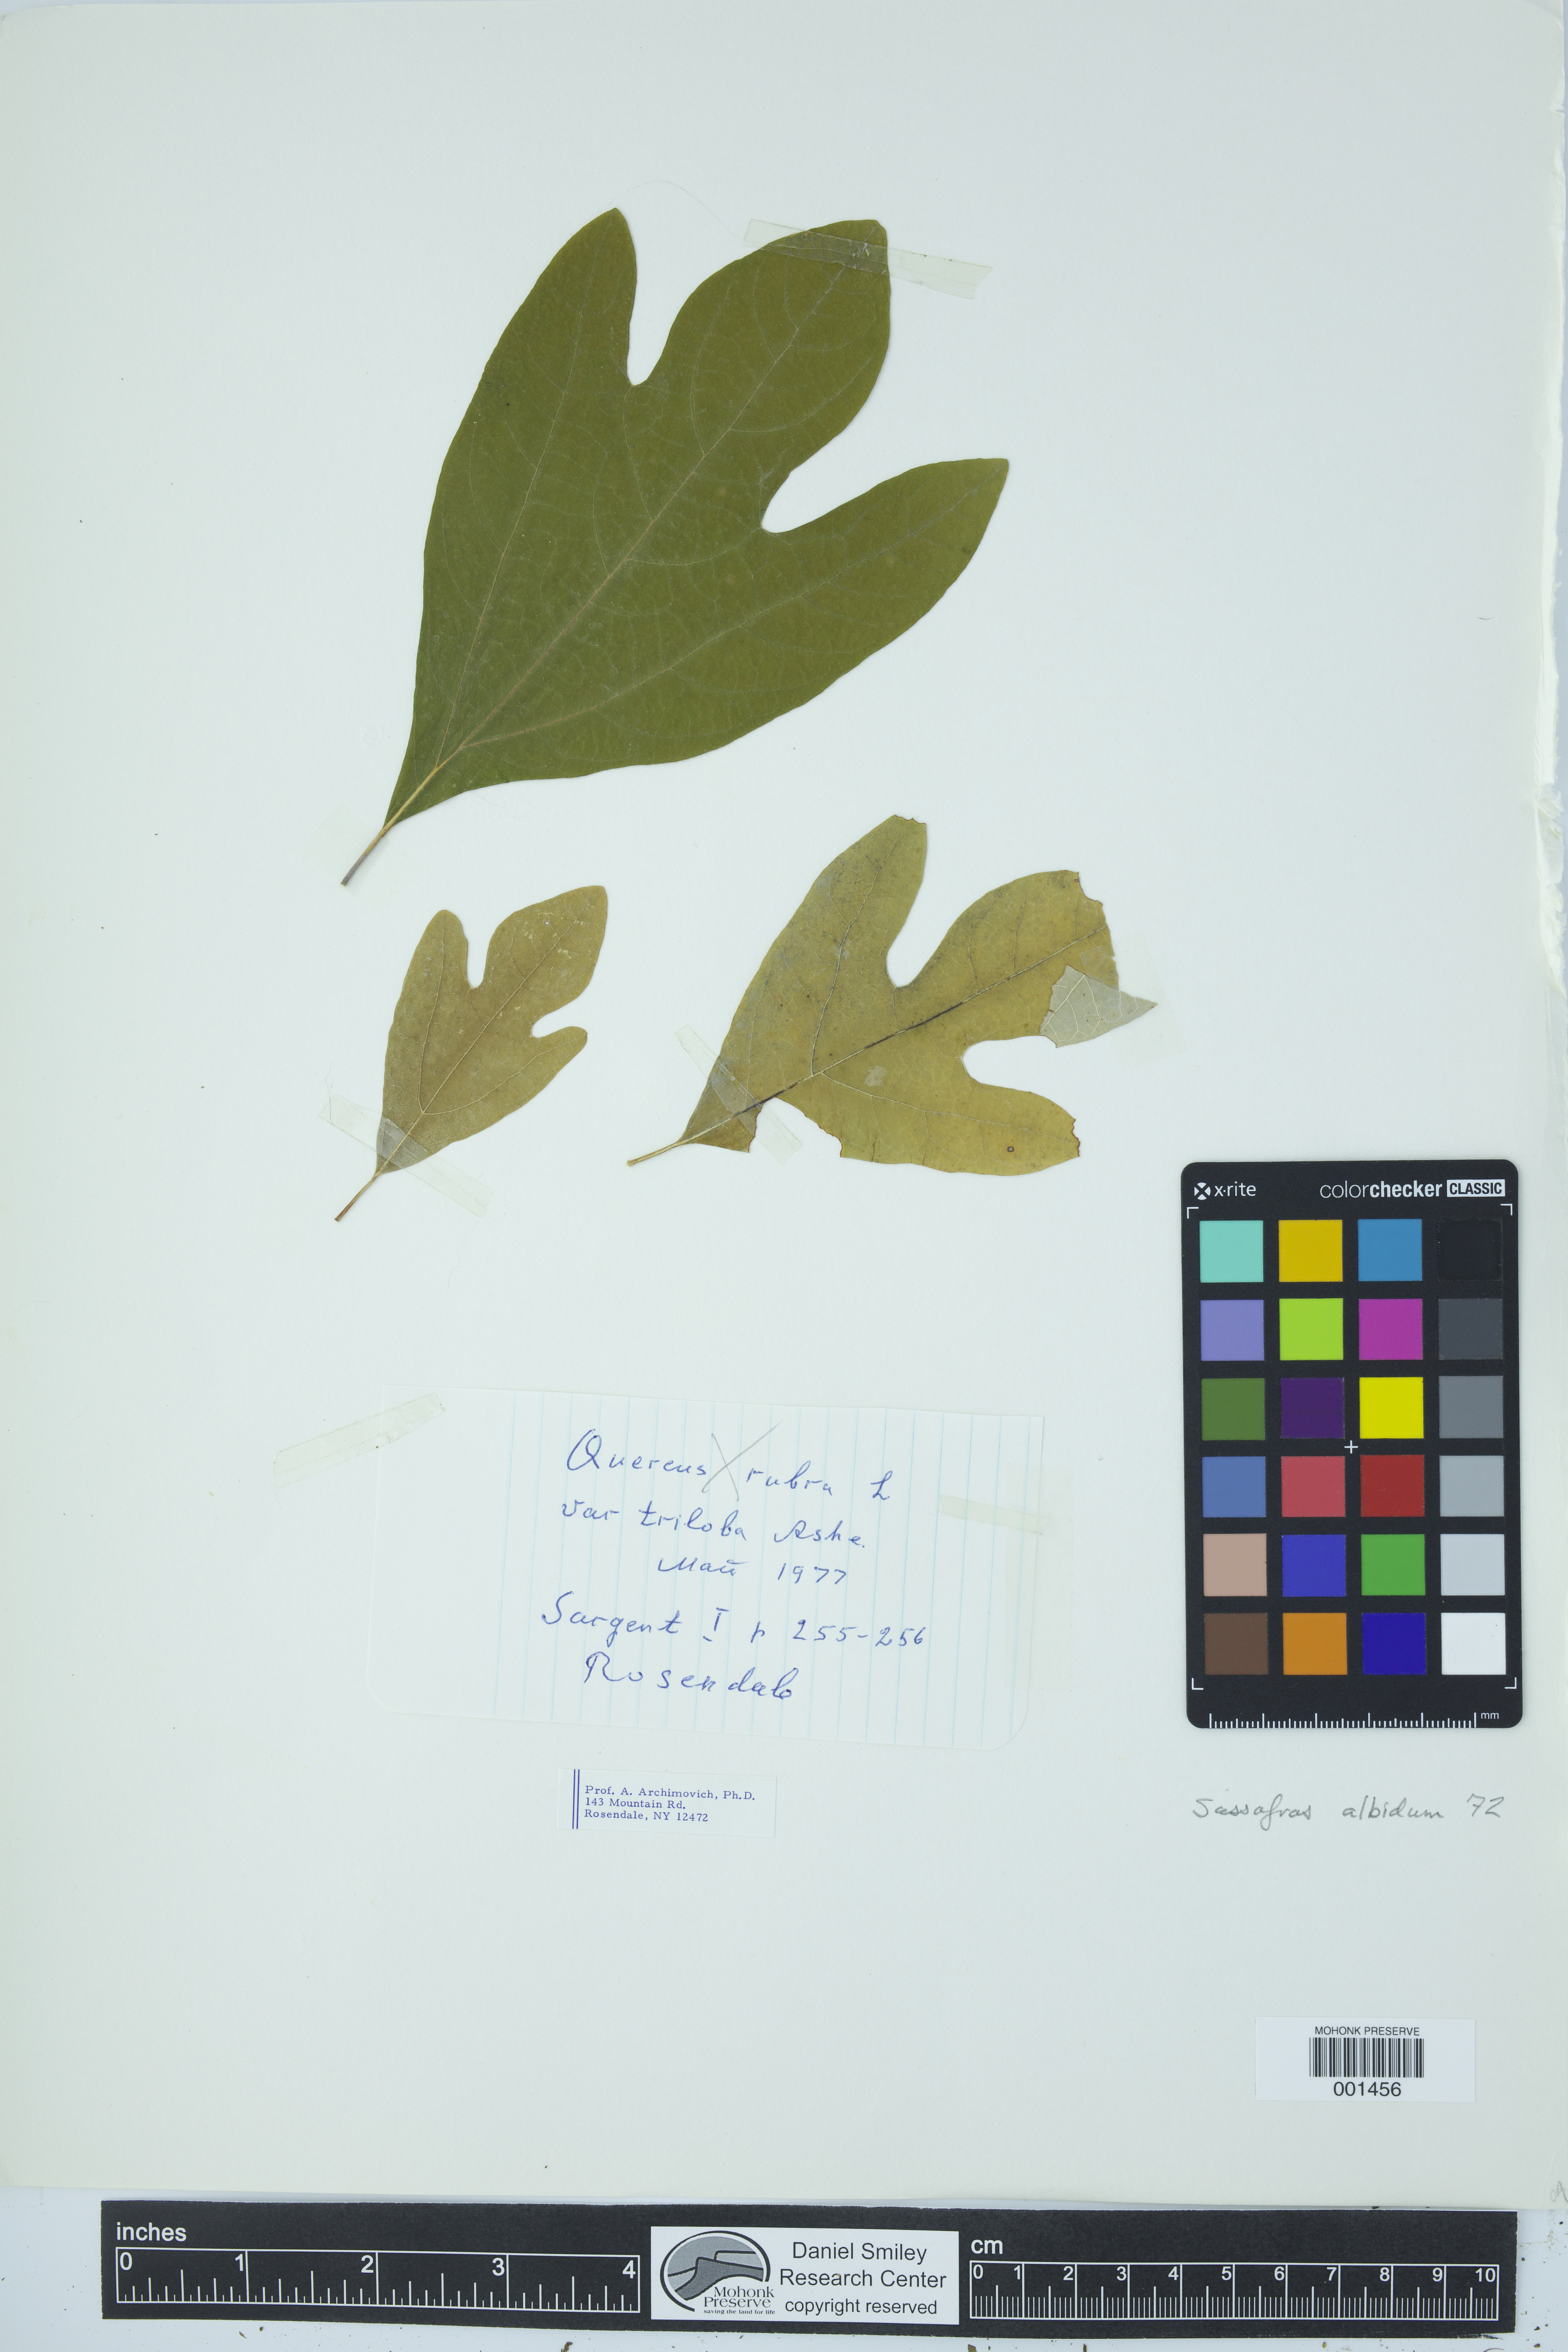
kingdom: Plantae
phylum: Tracheophyta
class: Magnoliopsida
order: Laurales
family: Lauraceae
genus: Sassafras
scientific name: Sassafras albidum
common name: Sassafras
